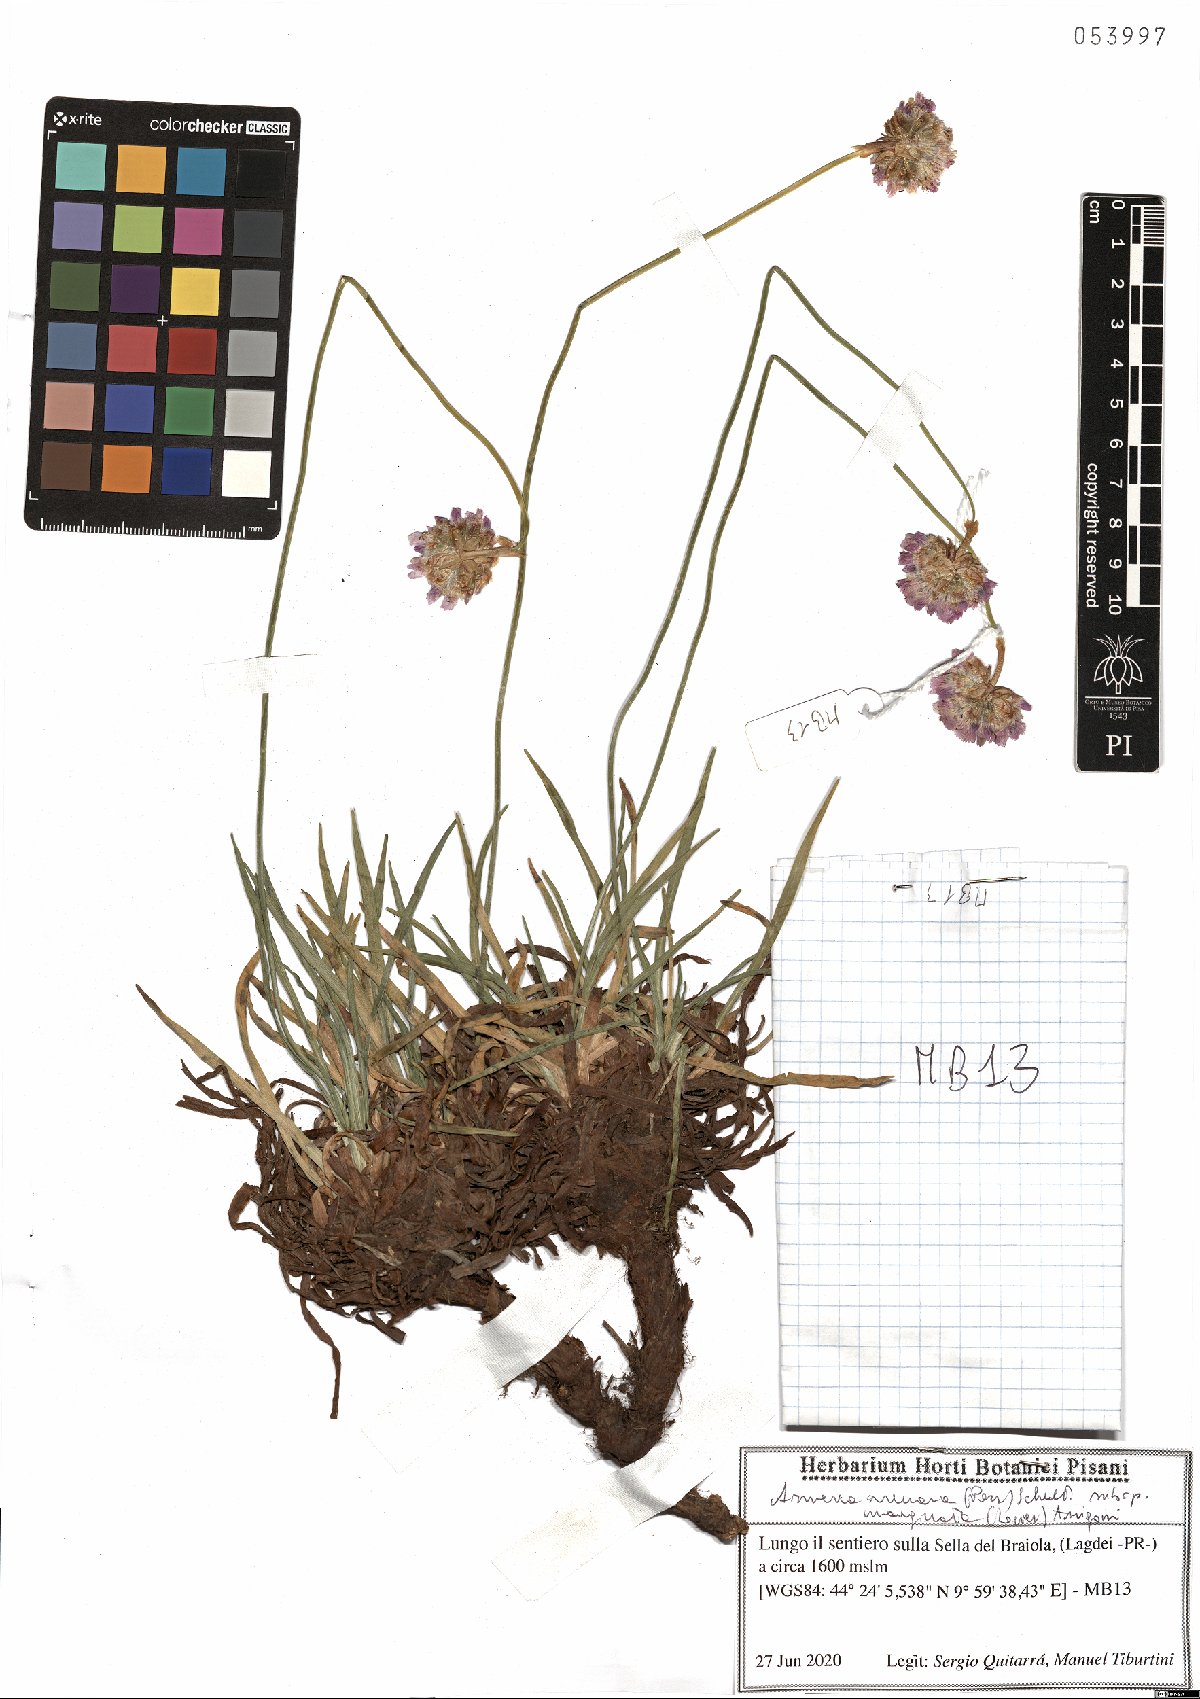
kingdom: Plantae
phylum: Tracheophyta
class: Magnoliopsida
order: Caryophyllales
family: Plumbaginaceae
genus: Armeria
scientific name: Armeria arenaria
